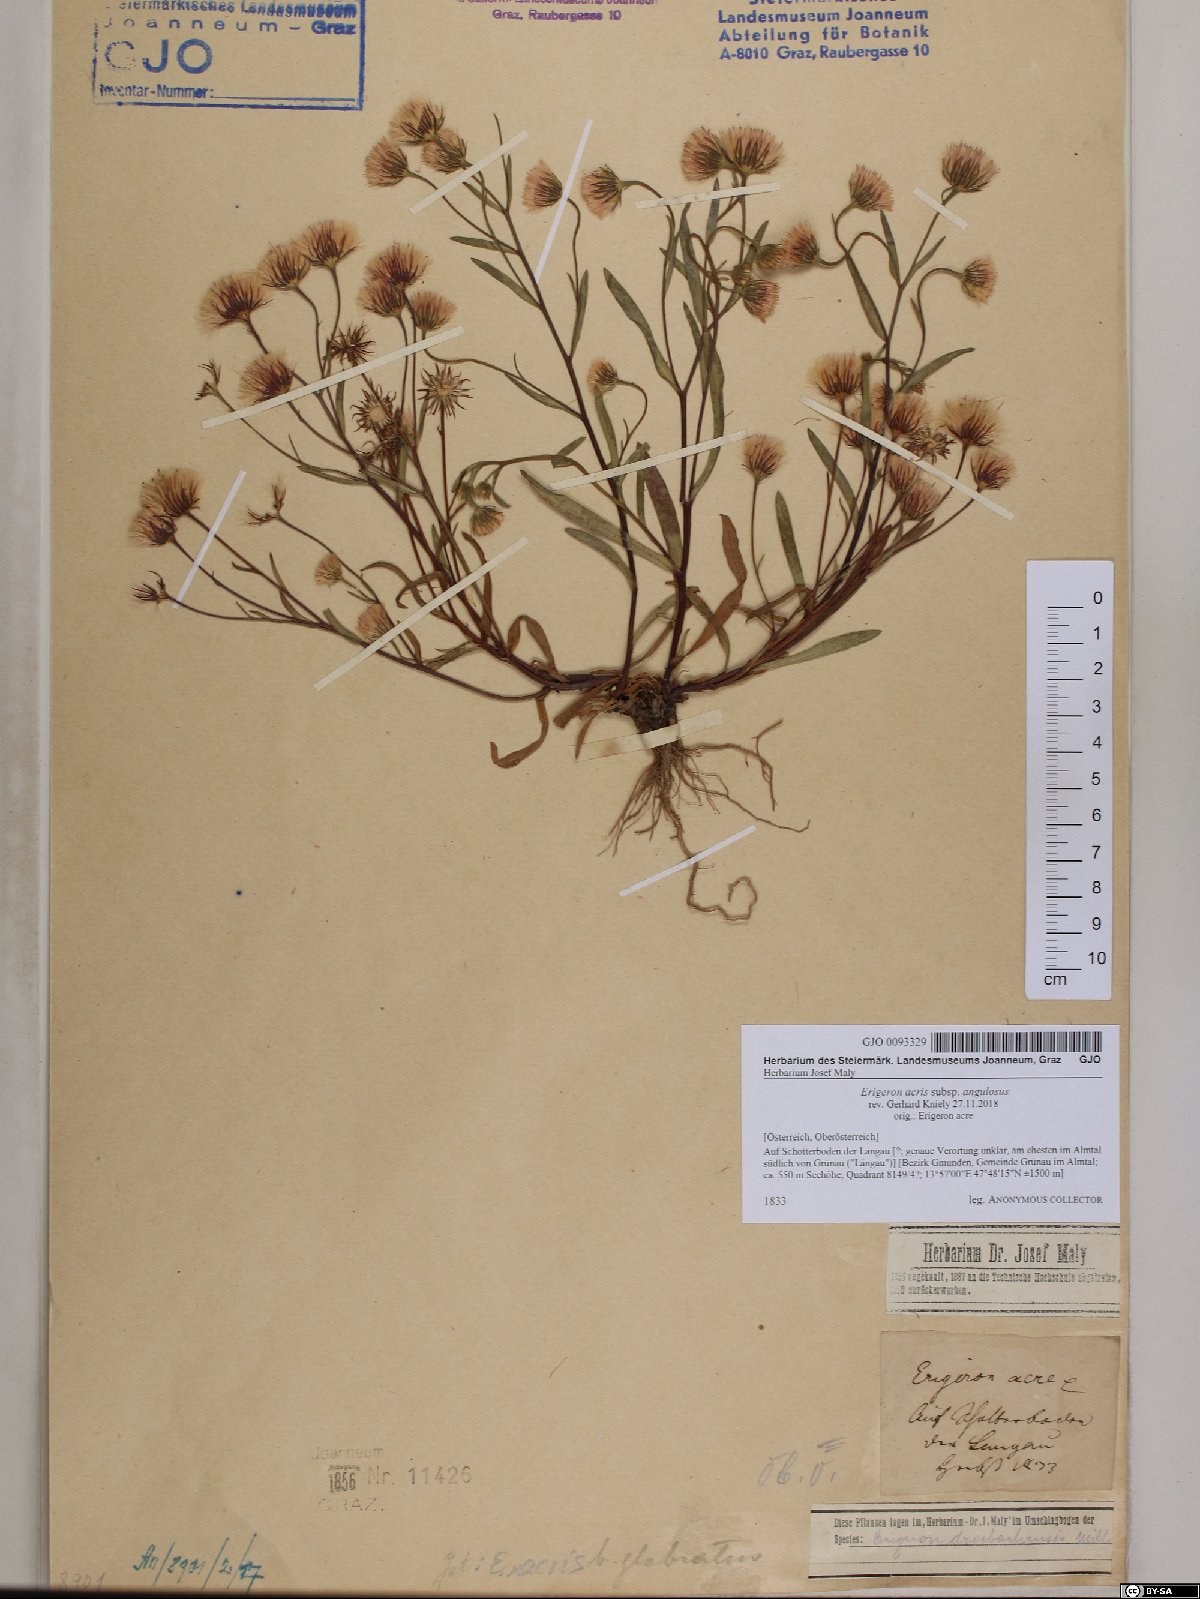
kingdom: Plantae
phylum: Tracheophyta
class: Magnoliopsida
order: Asterales
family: Asteraceae
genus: Erigeron
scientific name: Erigeron angulosus
